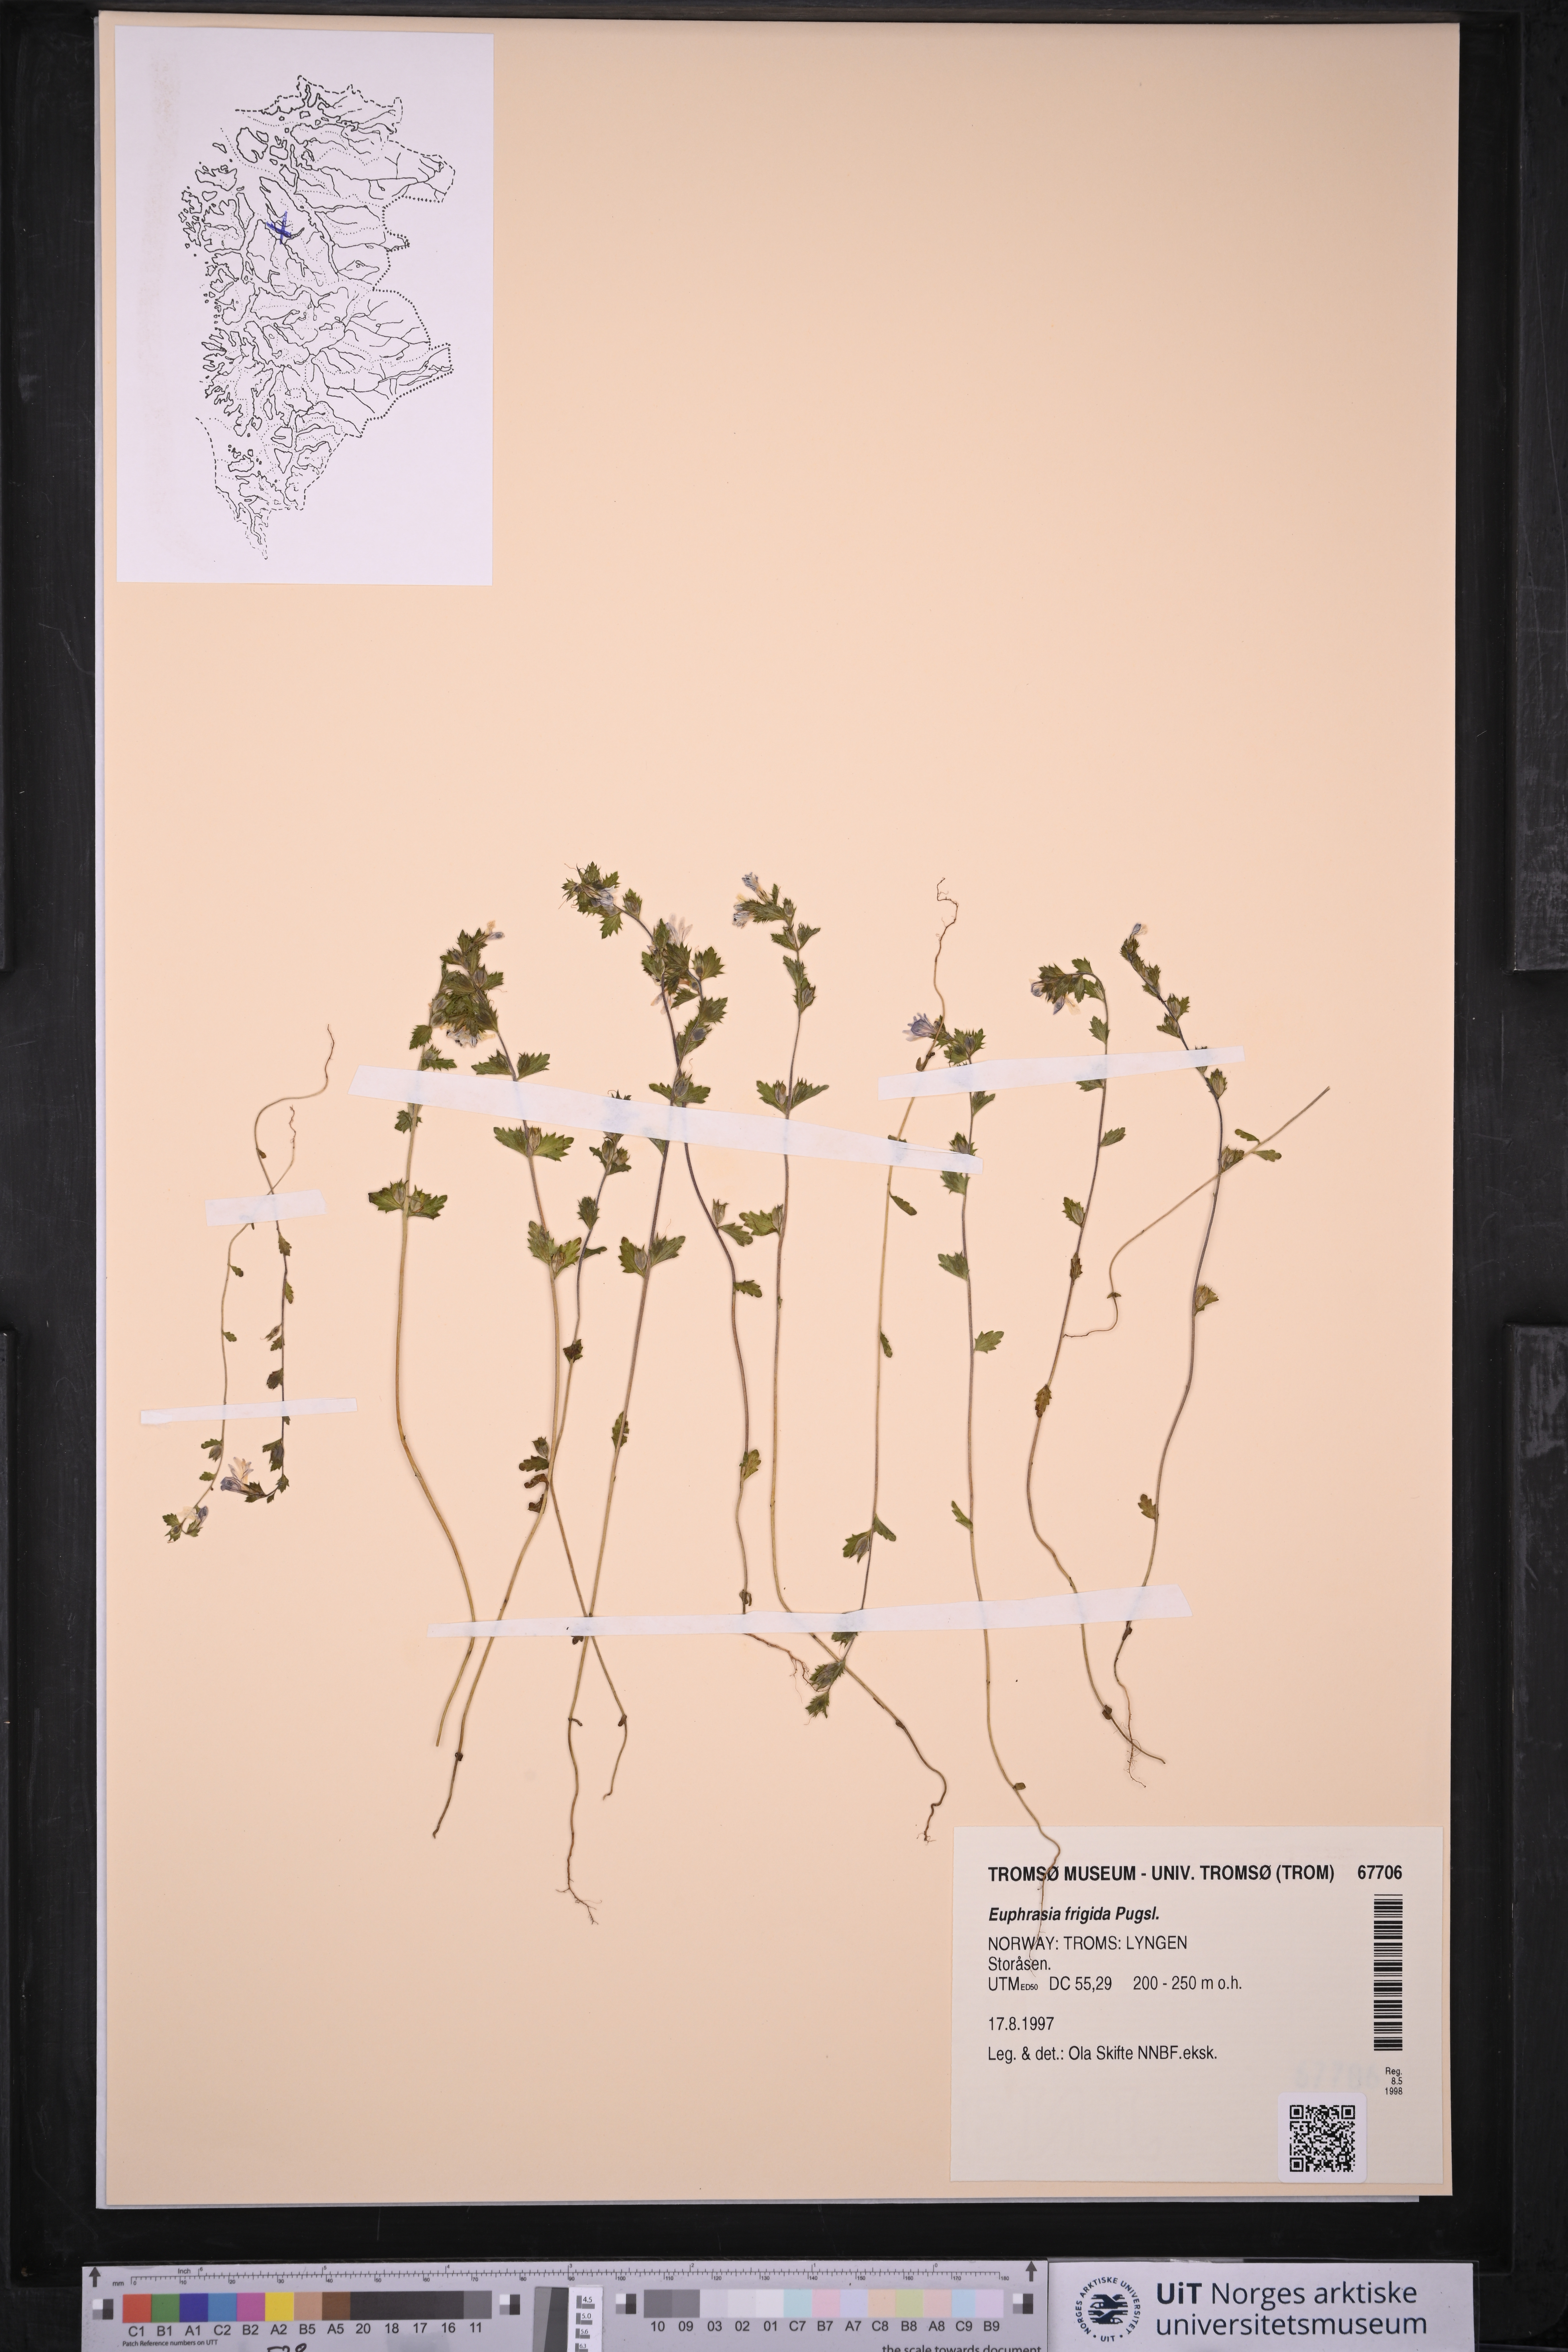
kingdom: Plantae
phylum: Tracheophyta
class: Magnoliopsida
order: Lamiales
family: Orobanchaceae
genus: Euphrasia
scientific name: Euphrasia frigida
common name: An eyebright
